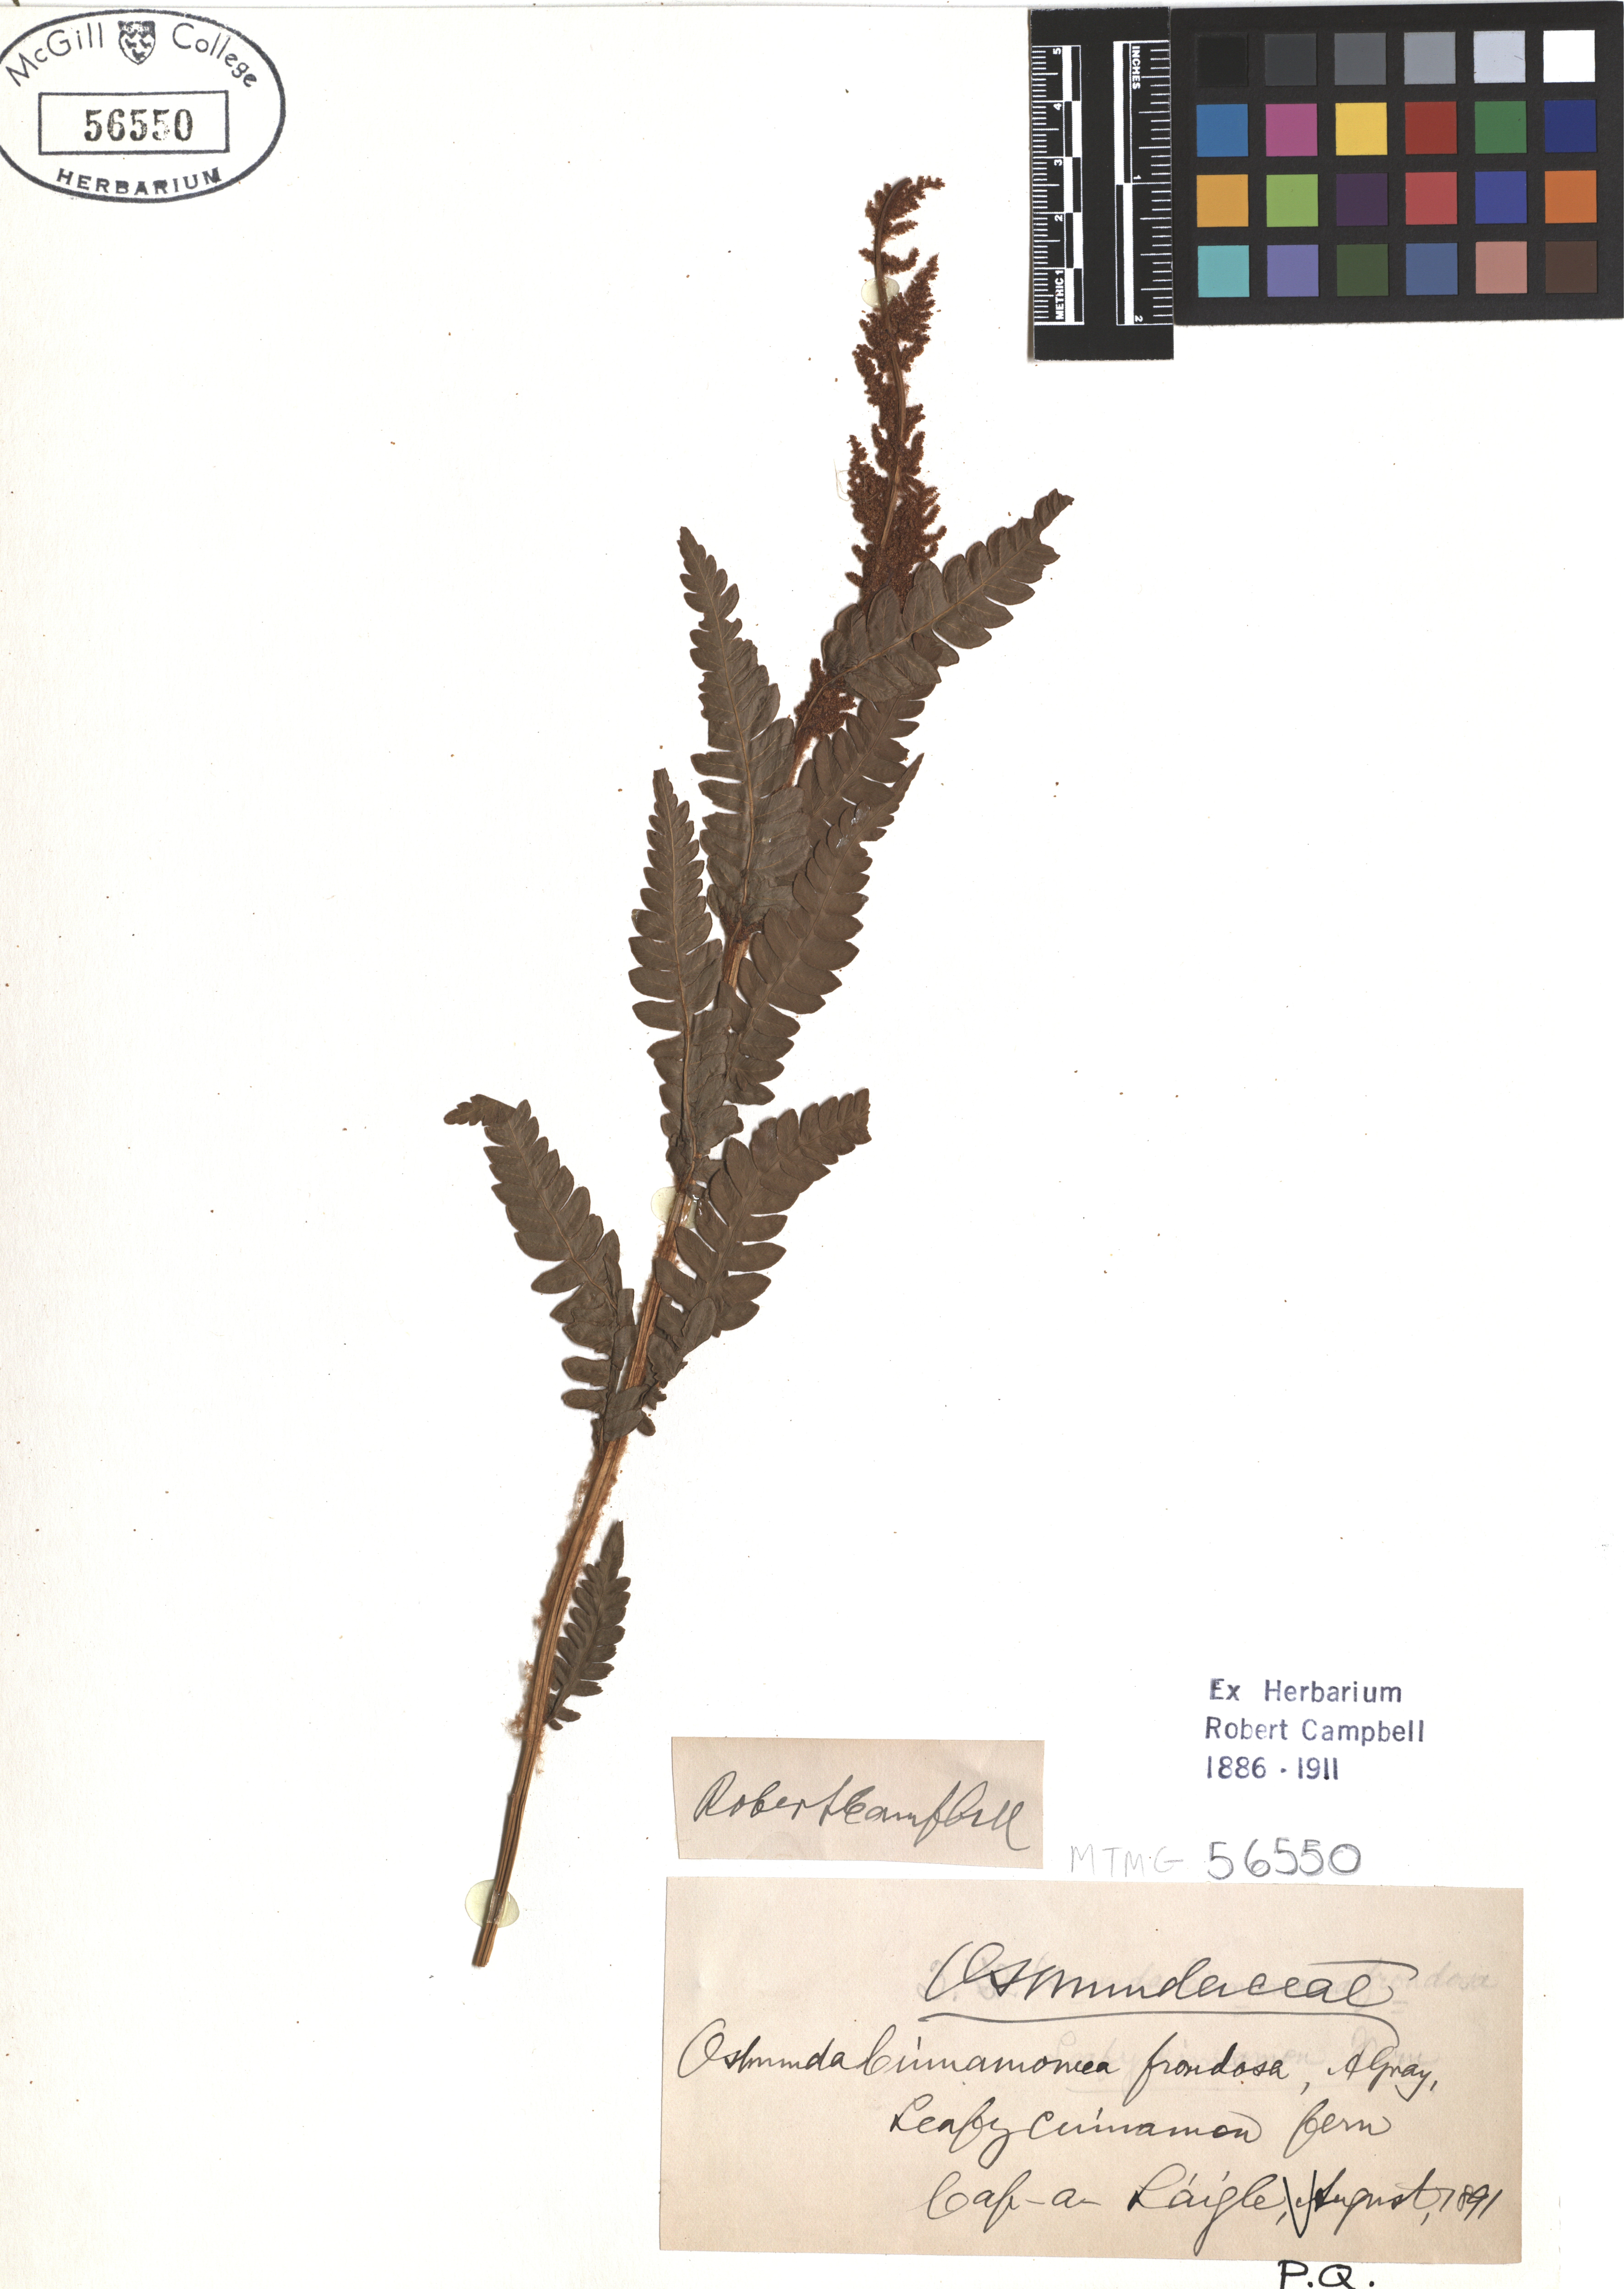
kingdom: Plantae
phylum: Tracheophyta
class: Polypodiopsida
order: Osmundales
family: Osmundaceae
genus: Osmundastrum
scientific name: Osmundastrum cinnamomeum
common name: Cinnamon fern
